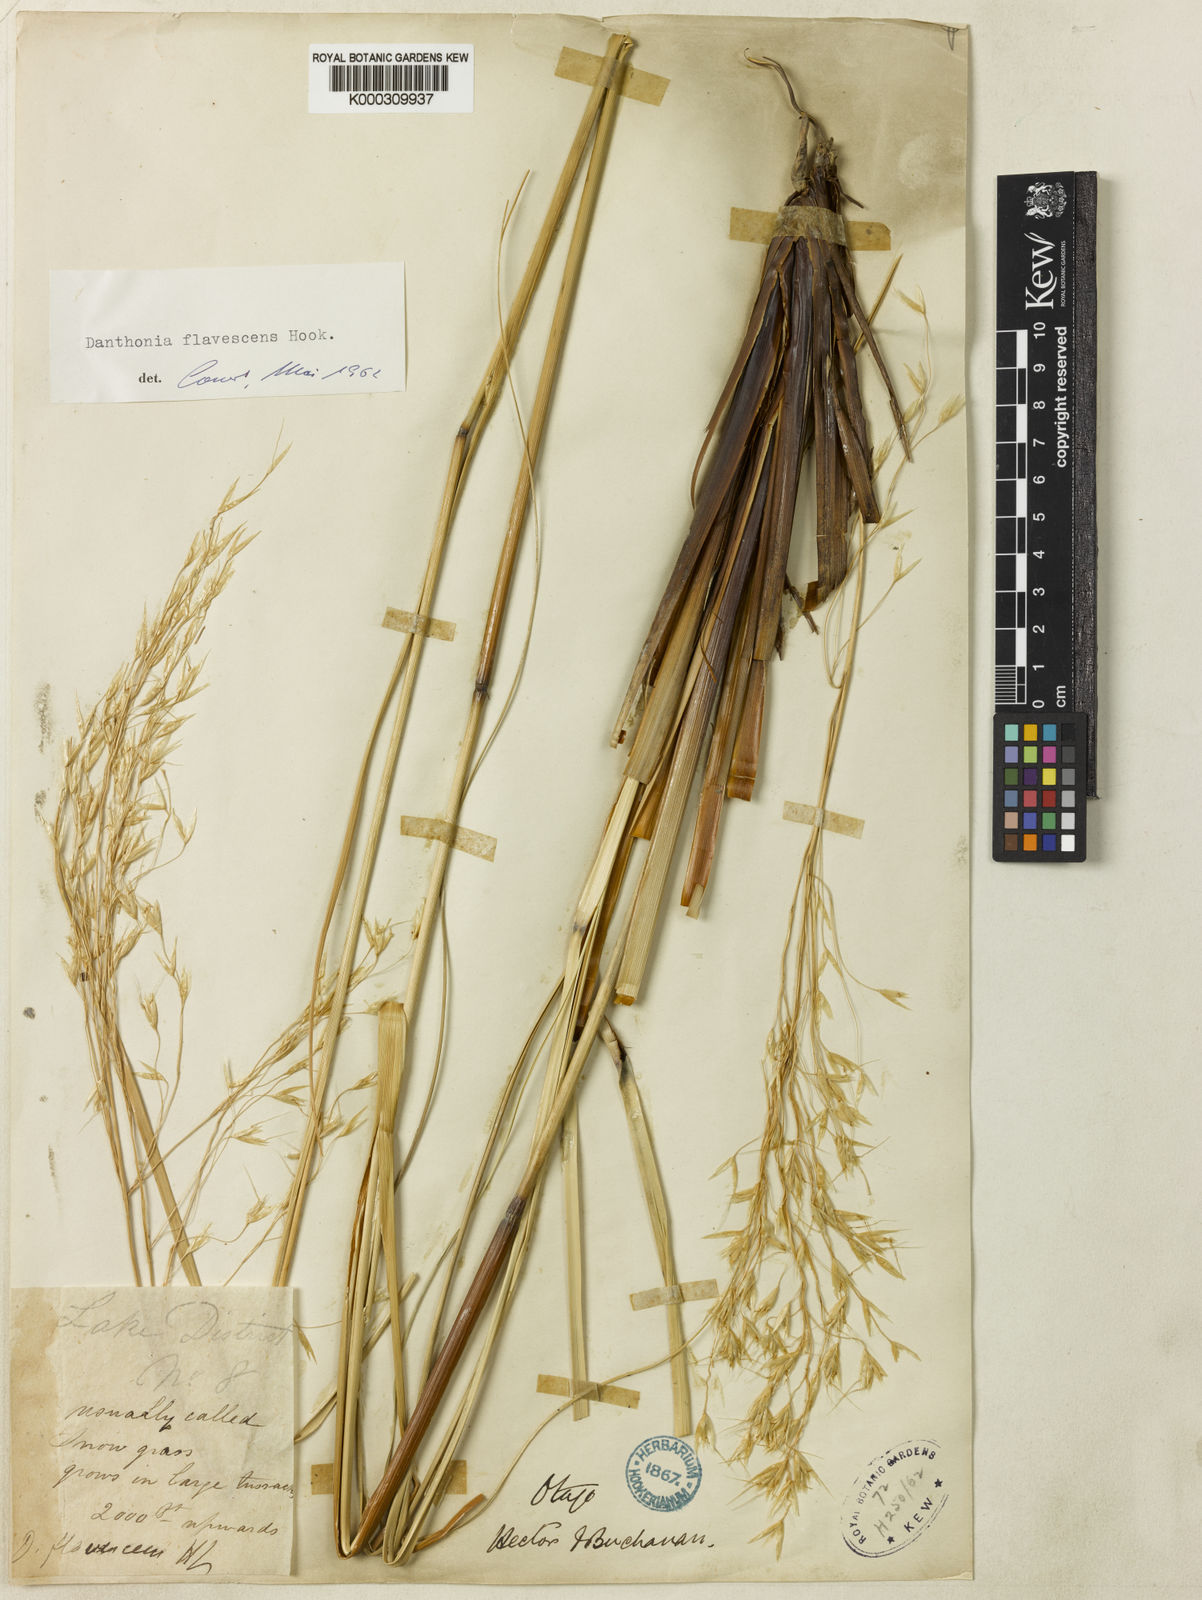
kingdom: Plantae
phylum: Tracheophyta
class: Liliopsida
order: Poales
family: Poaceae
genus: Chionochloa
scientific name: Chionochloa rigida
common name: Narrow leaved snow tussock
